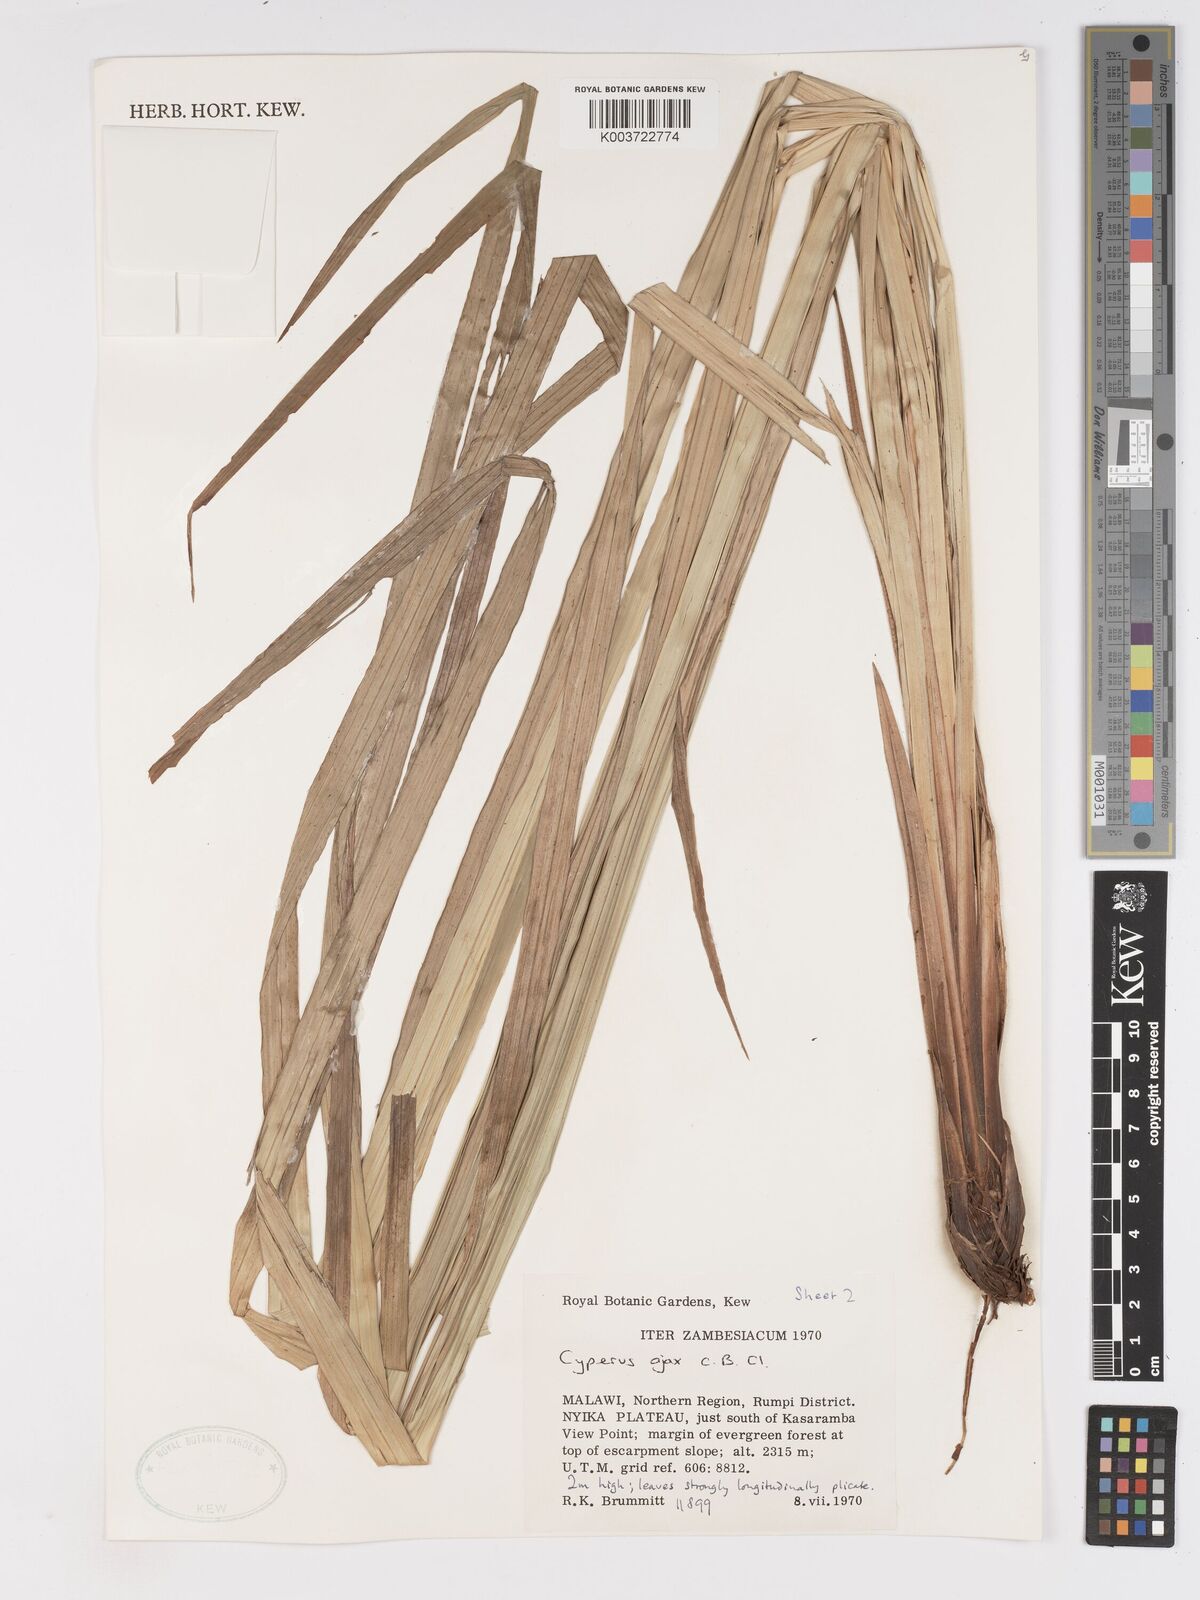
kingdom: Plantae
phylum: Tracheophyta
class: Liliopsida
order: Poales
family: Cyperaceae
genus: Cyperus
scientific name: Cyperus ajax
